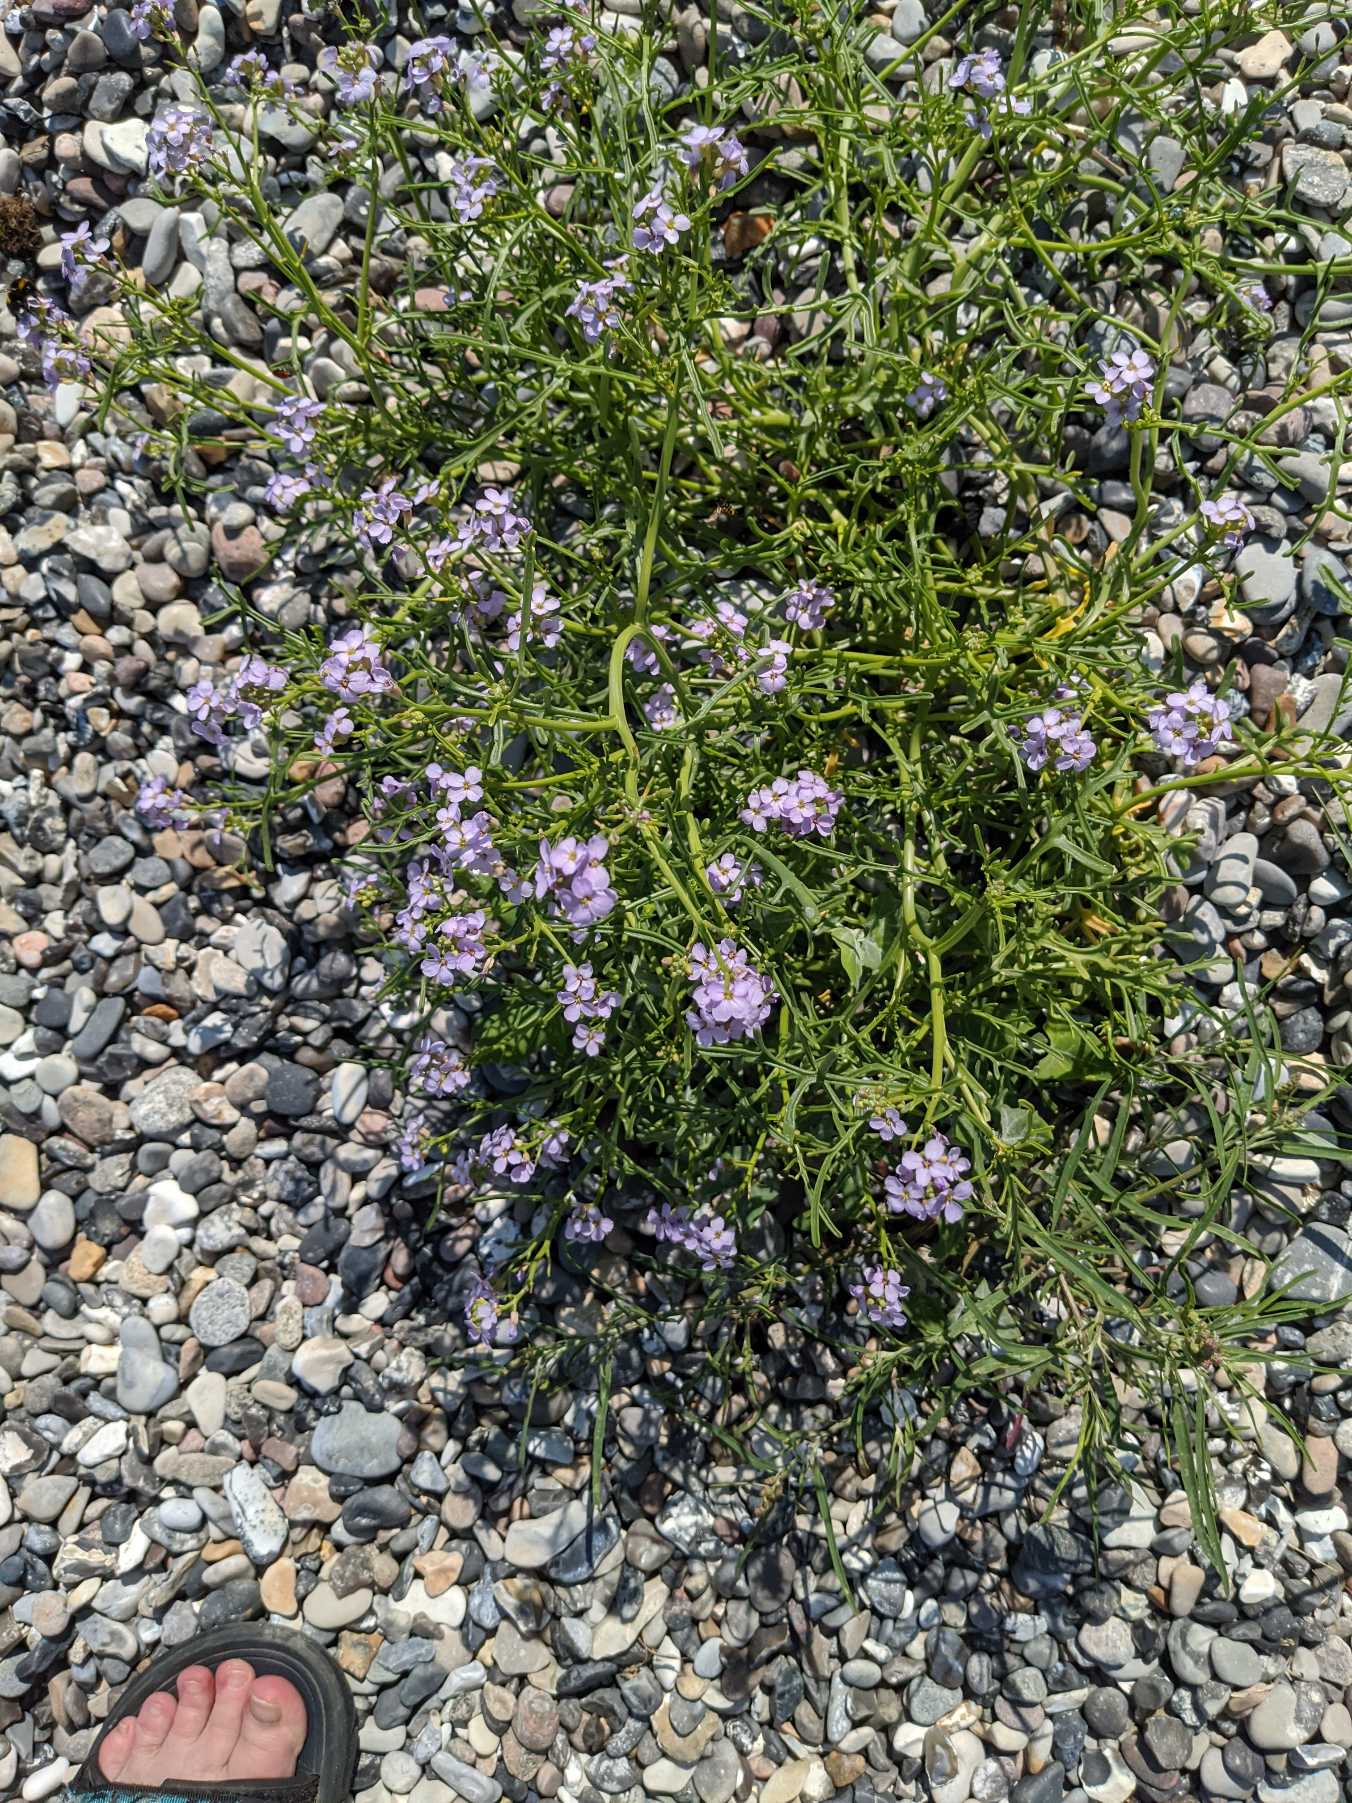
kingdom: Plantae
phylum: Tracheophyta
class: Magnoliopsida
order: Brassicales
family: Brassicaceae
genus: Cakile
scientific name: Cakile maritima
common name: Strandsennep
